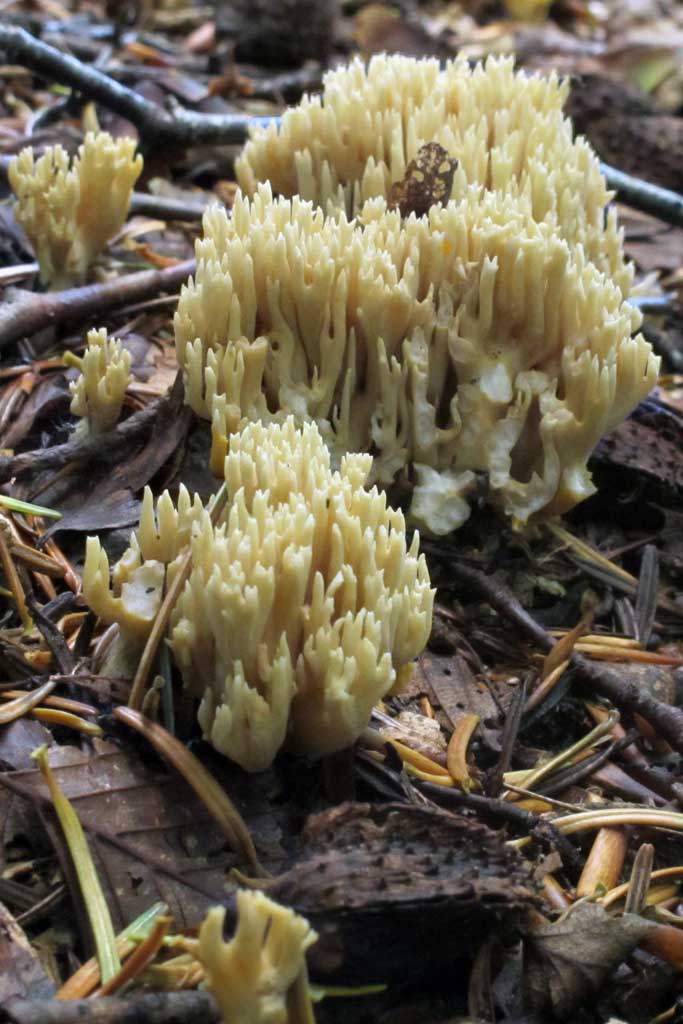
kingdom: Fungi
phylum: Basidiomycota
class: Agaricomycetes
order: Gomphales
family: Gomphaceae
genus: Phaeoclavulina
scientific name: Phaeoclavulina eumorpha
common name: gran-koralsvamp
